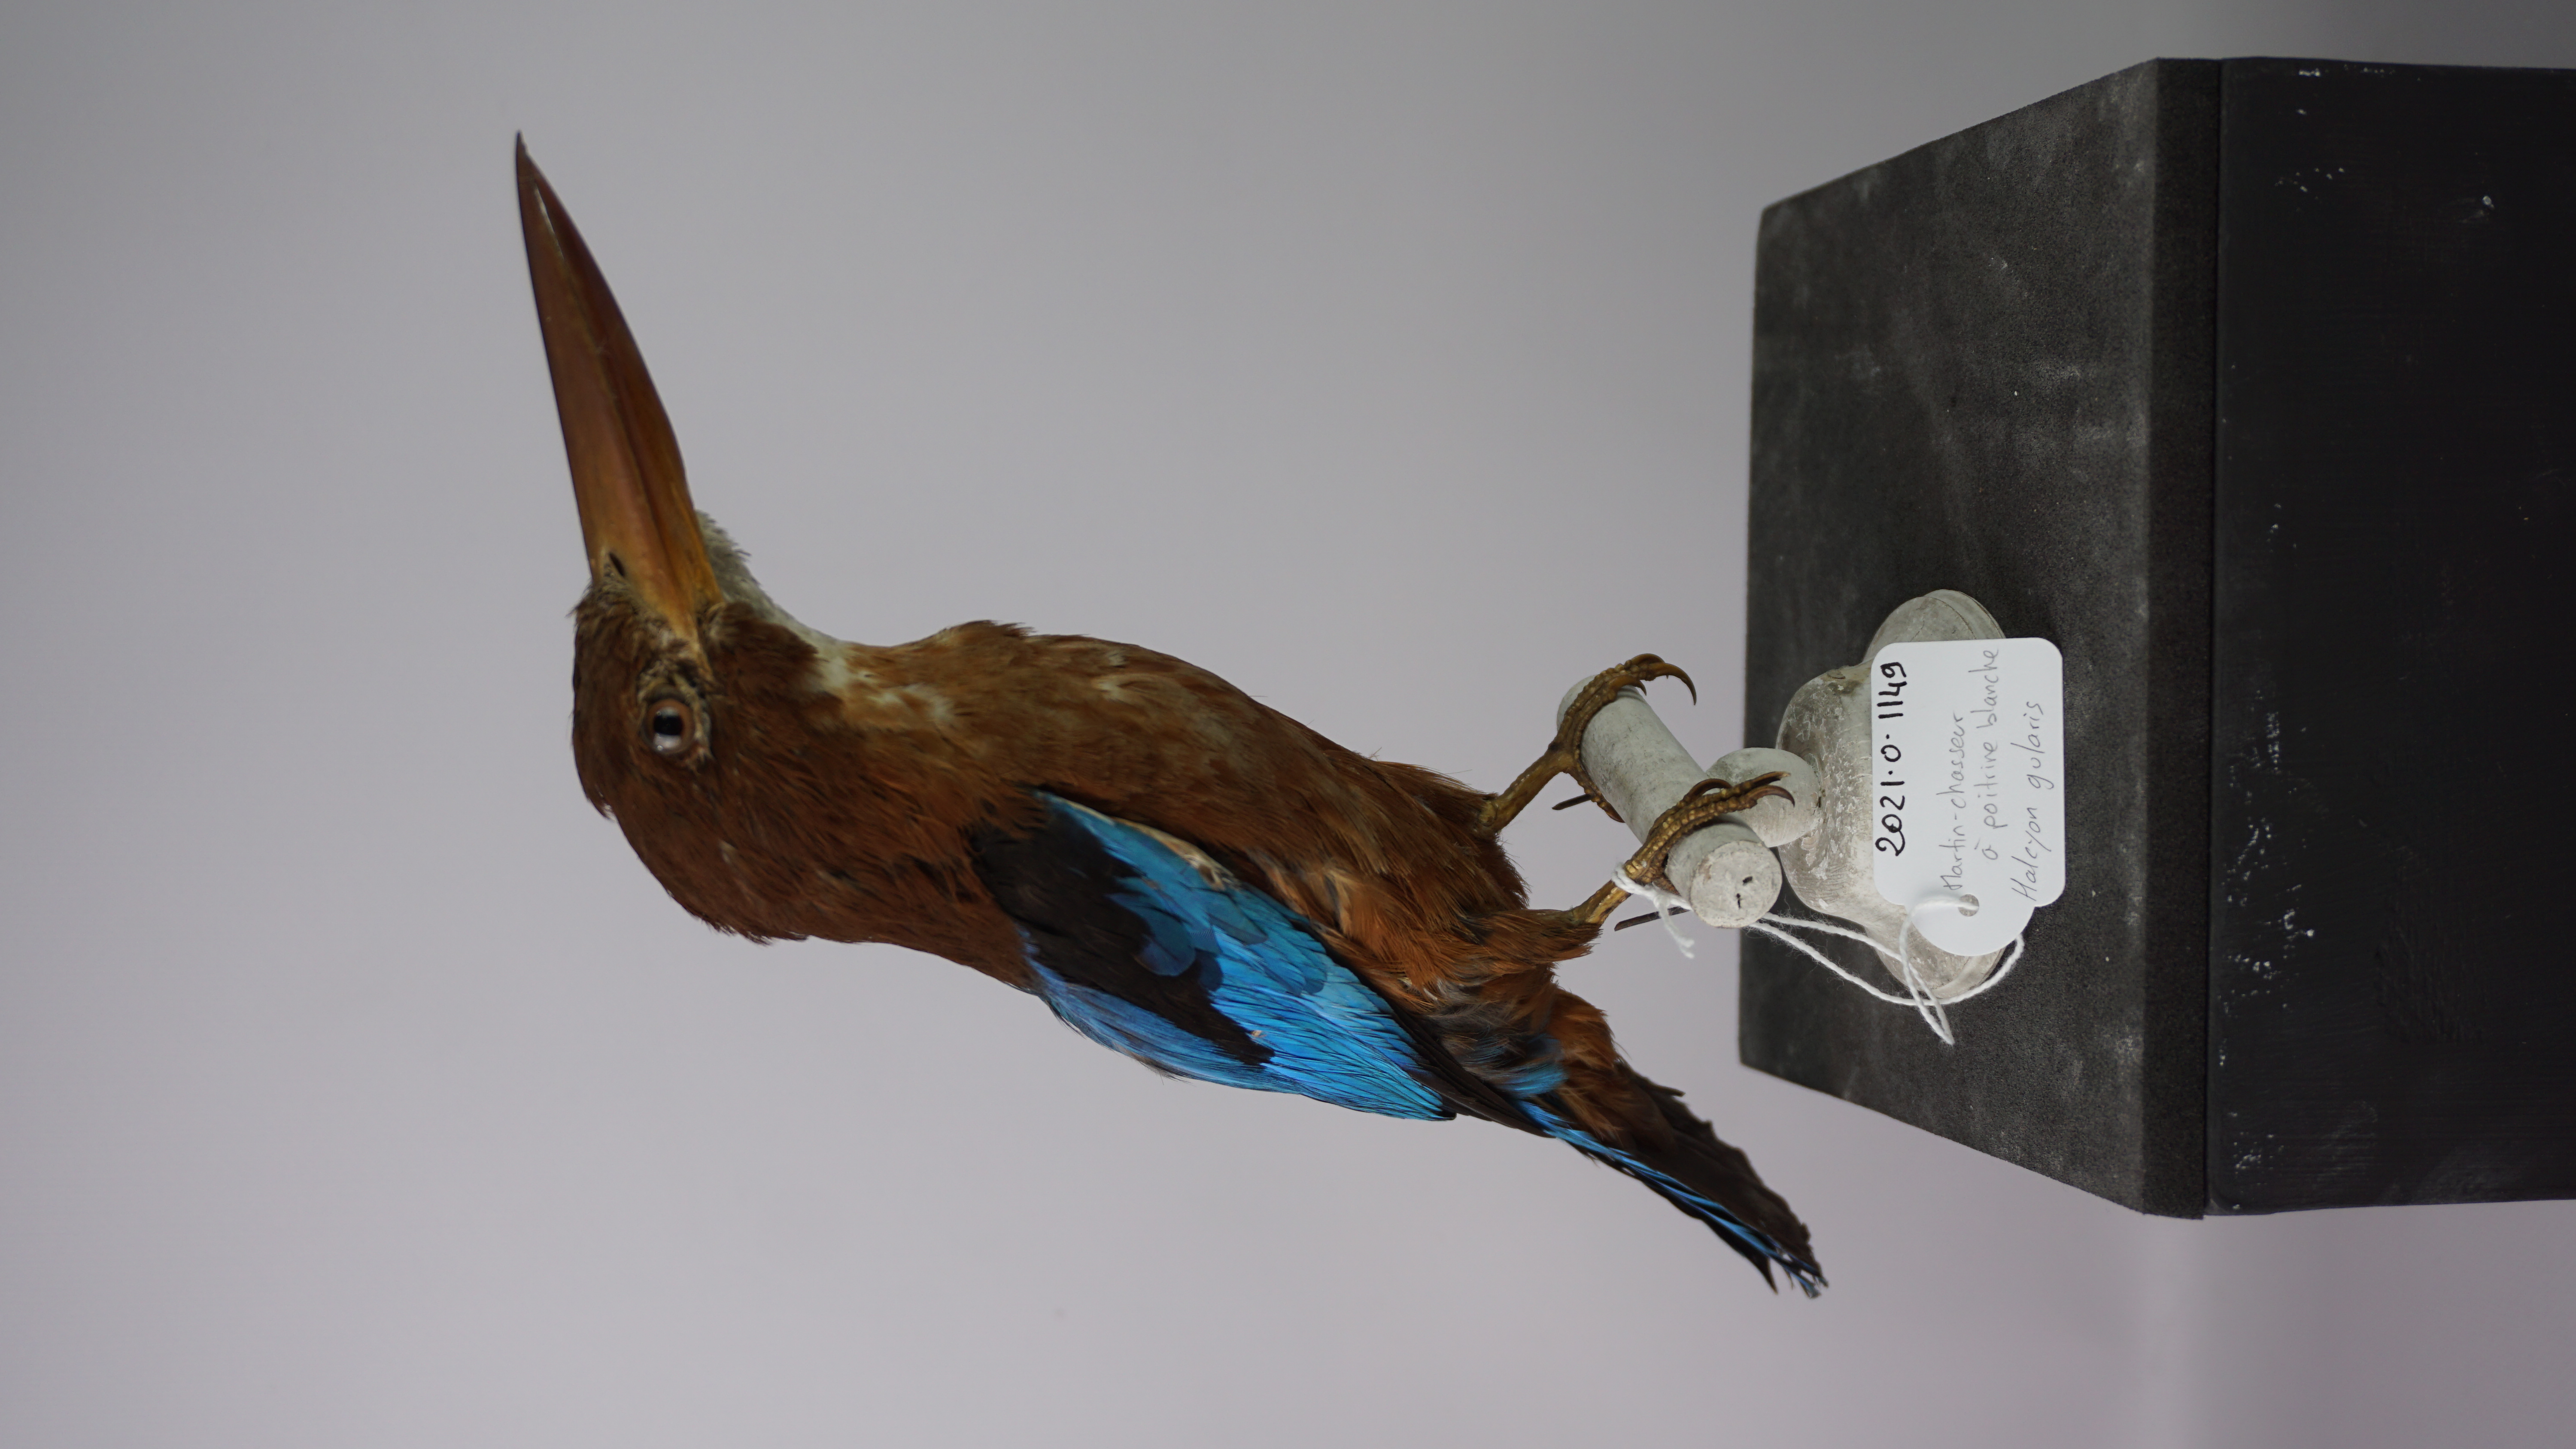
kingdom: Animalia
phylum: Chordata
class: Aves
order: Coraciiformes
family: Alcedinidae
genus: Halcyon
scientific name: Halcyon gularis
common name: Brown-breasted kingfisher
